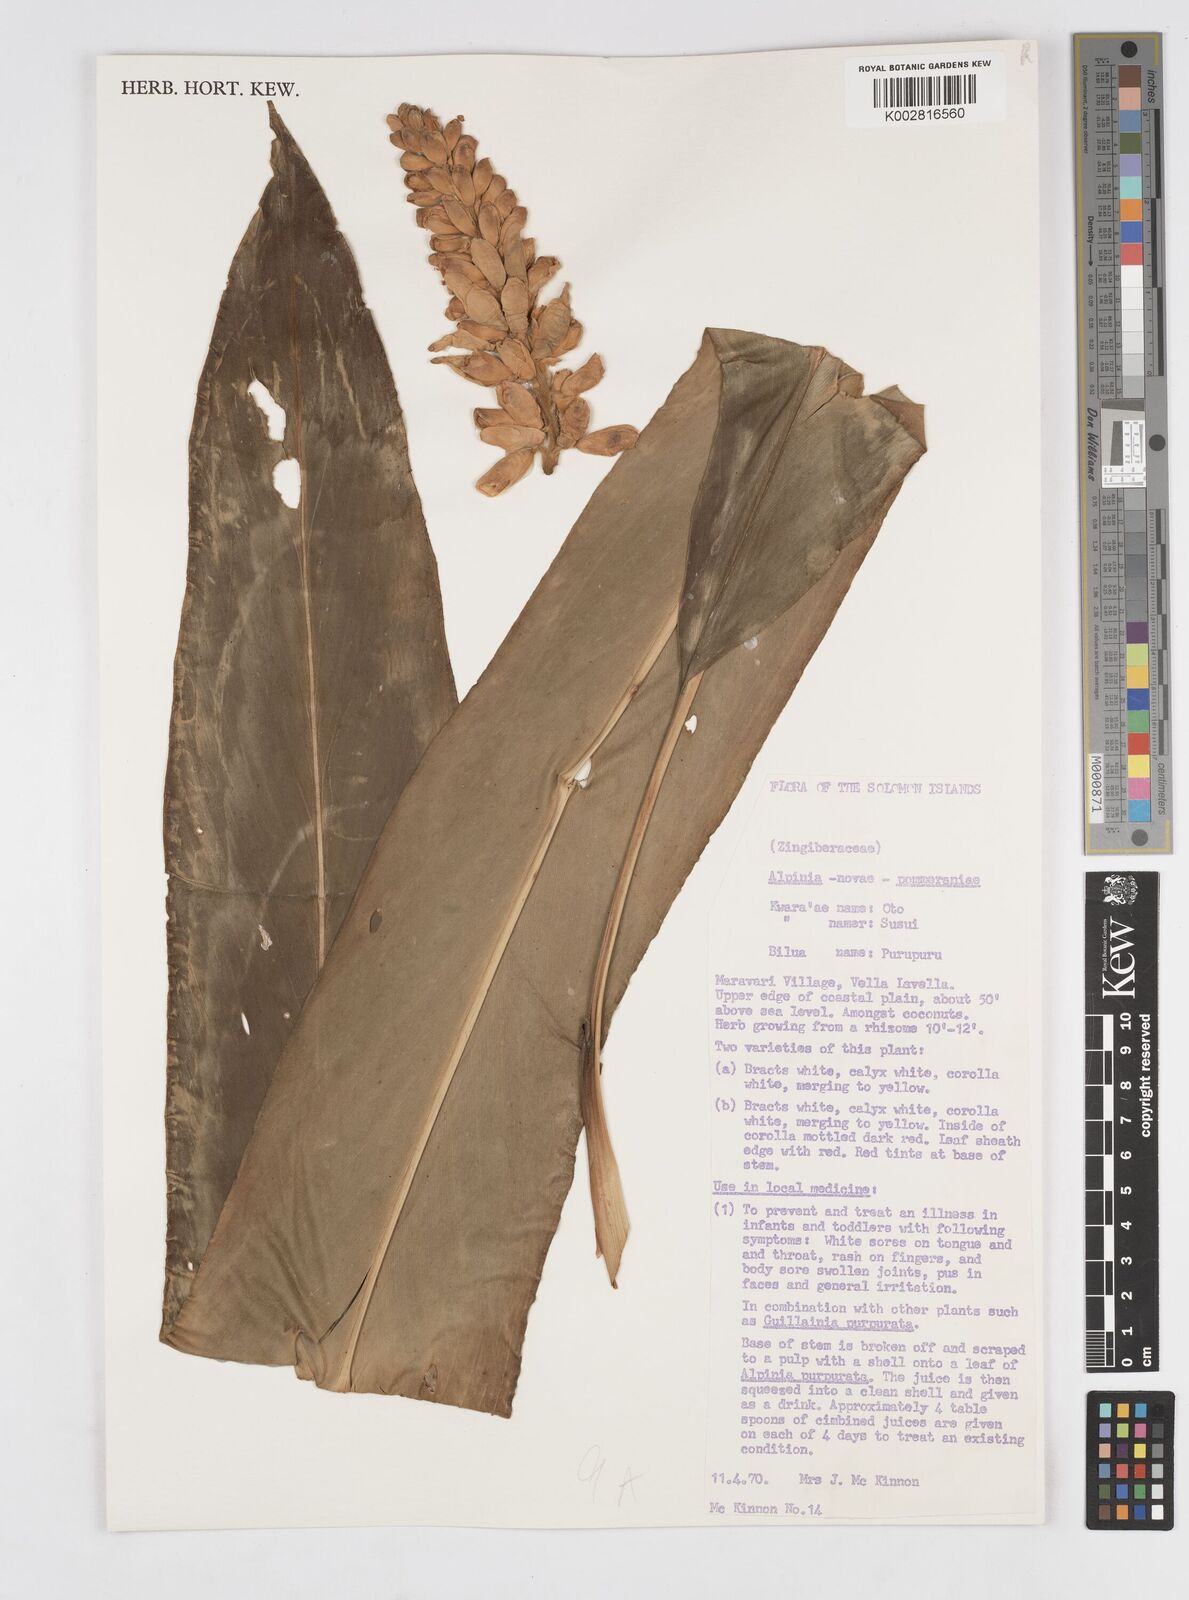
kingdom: Plantae
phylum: Tracheophyta
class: Liliopsida
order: Zingiberales
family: Zingiberaceae
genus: Alpinia
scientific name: Alpinia novae-pommeraniae
